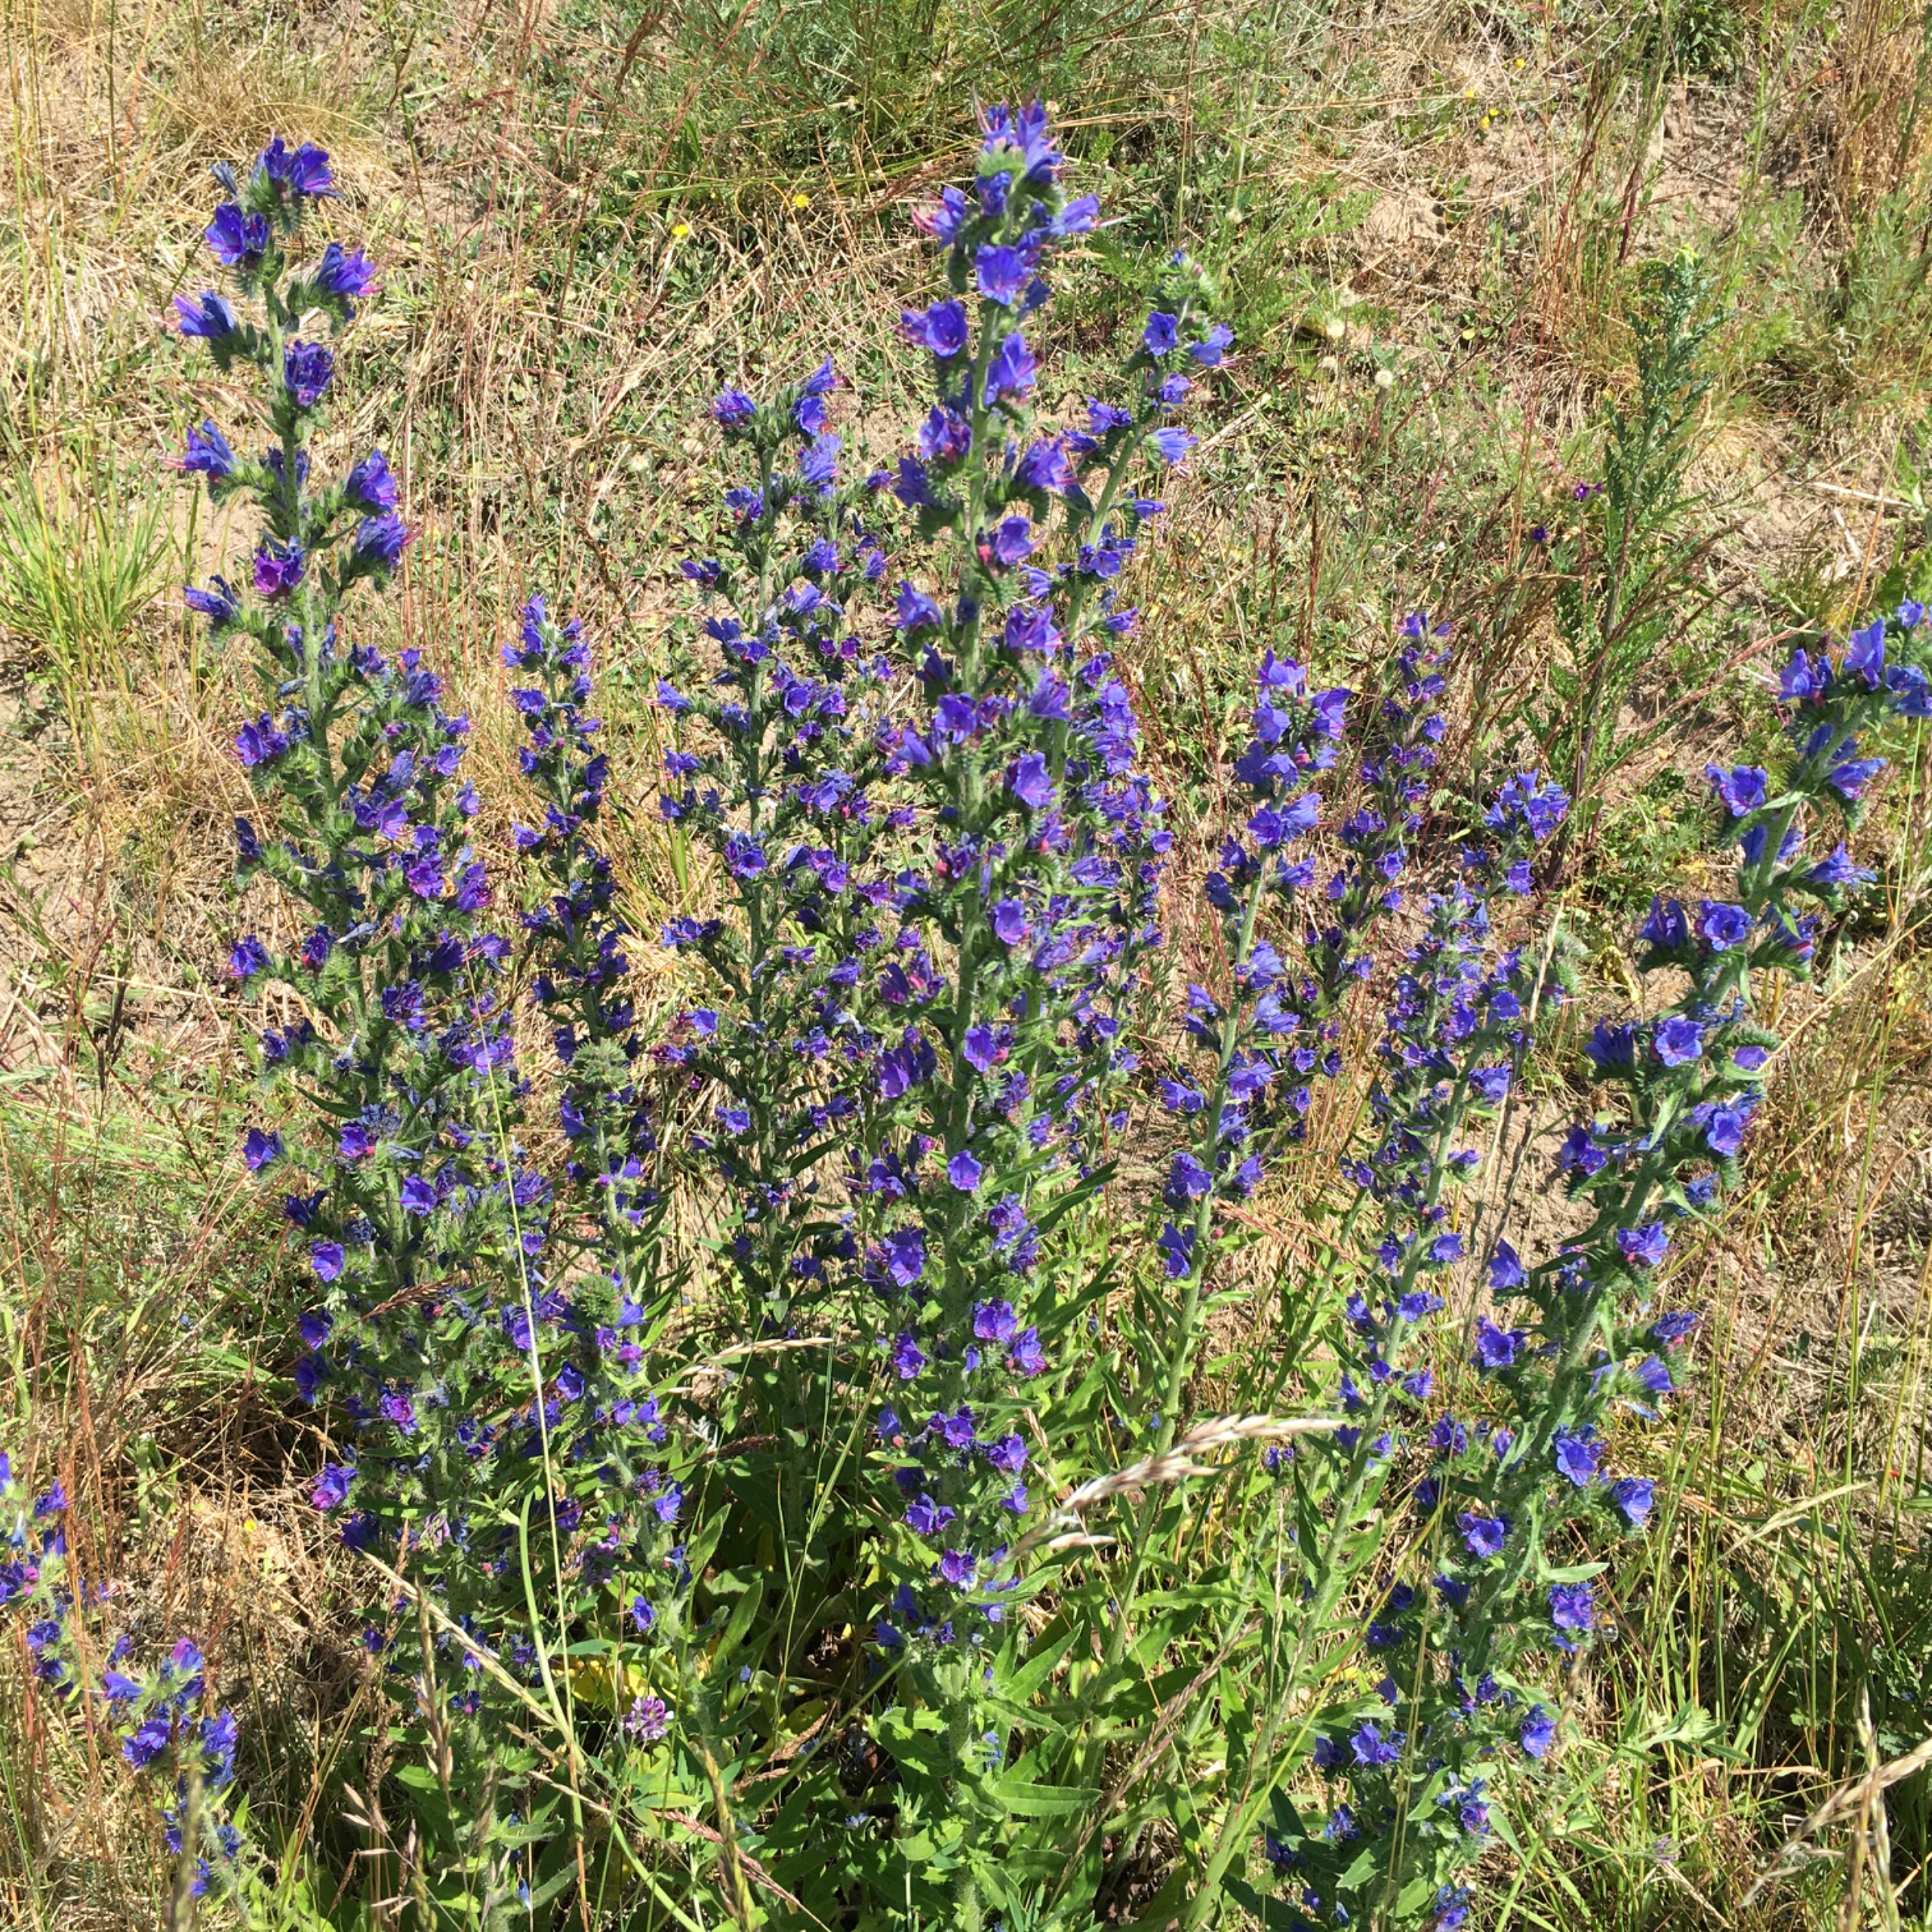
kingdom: Plantae
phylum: Tracheophyta
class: Magnoliopsida
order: Boraginales
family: Boraginaceae
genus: Echium
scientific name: Echium vulgare
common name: Slangehoved
